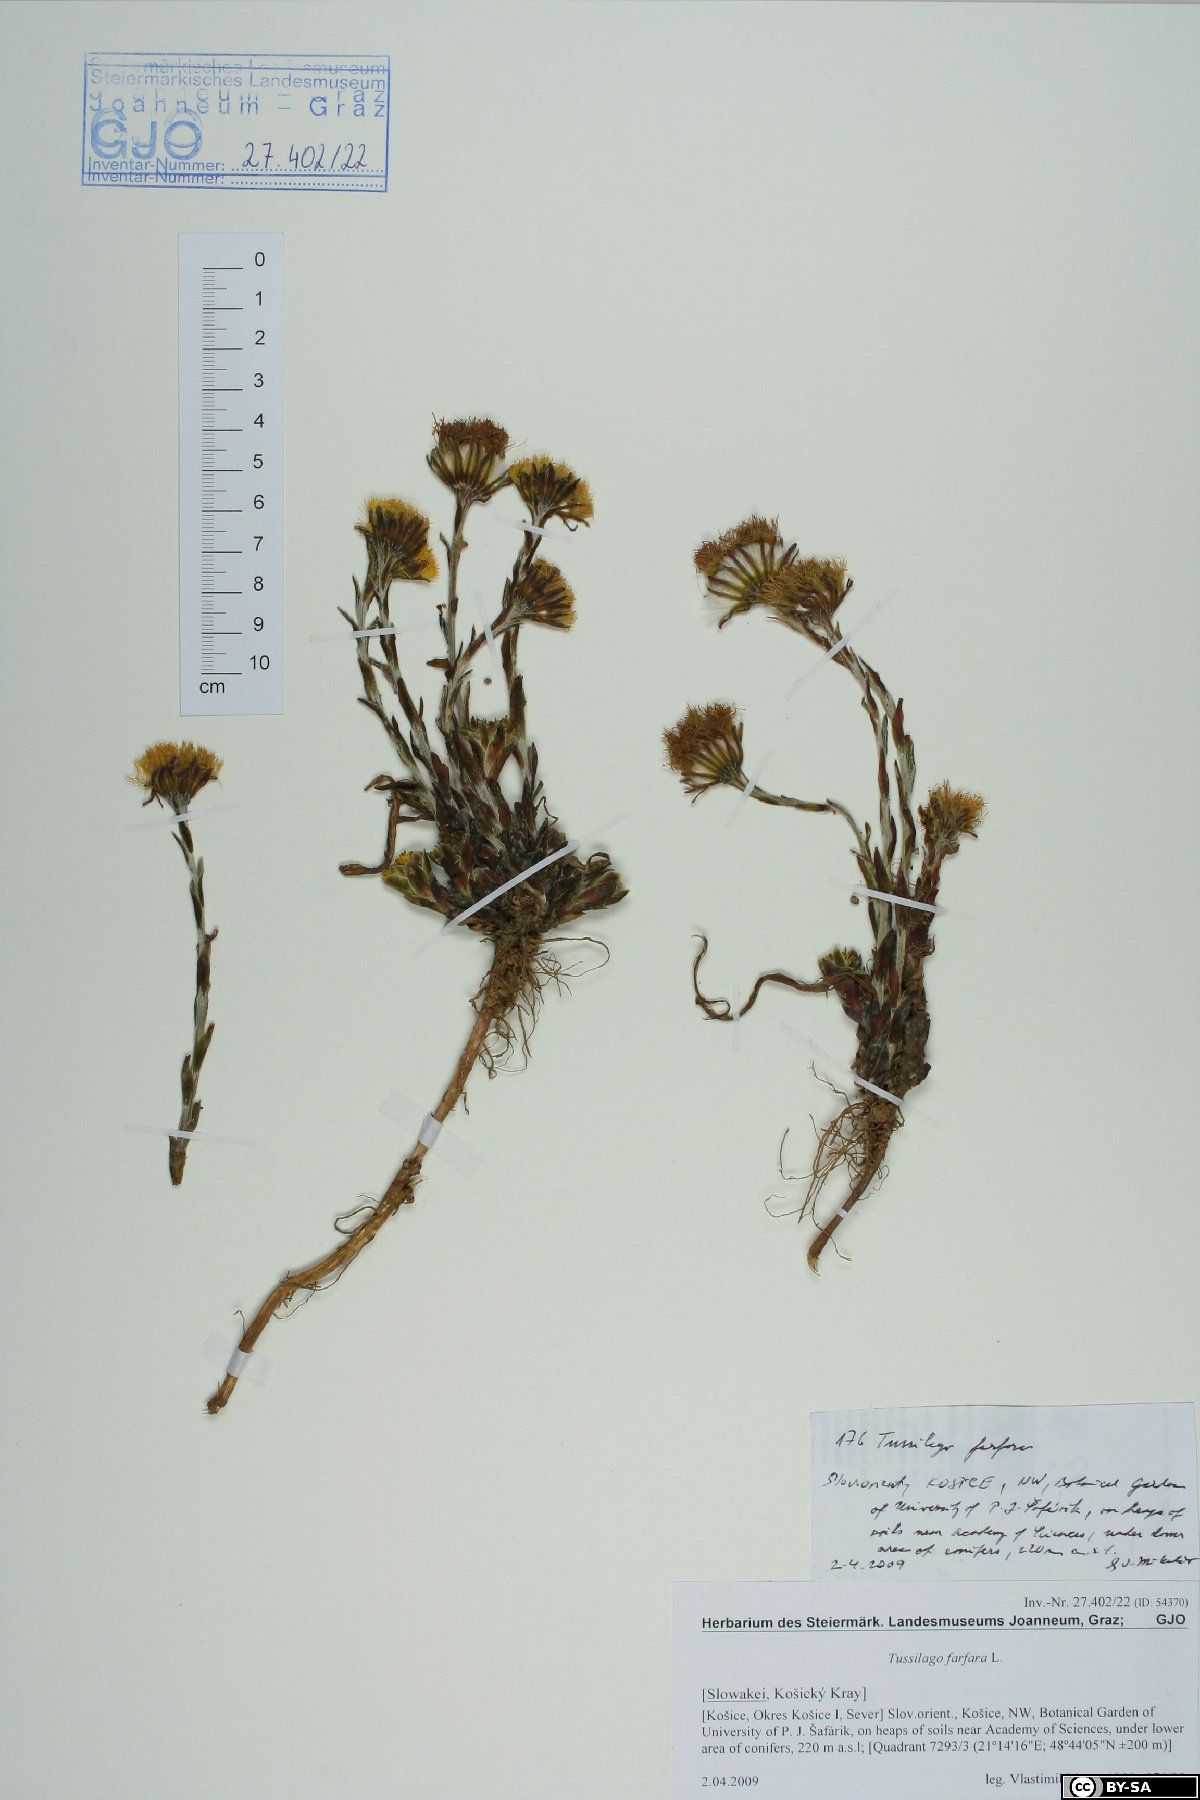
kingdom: Plantae
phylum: Tracheophyta
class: Magnoliopsida
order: Asterales
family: Asteraceae
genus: Tussilago
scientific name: Tussilago farfara
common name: Coltsfoot
